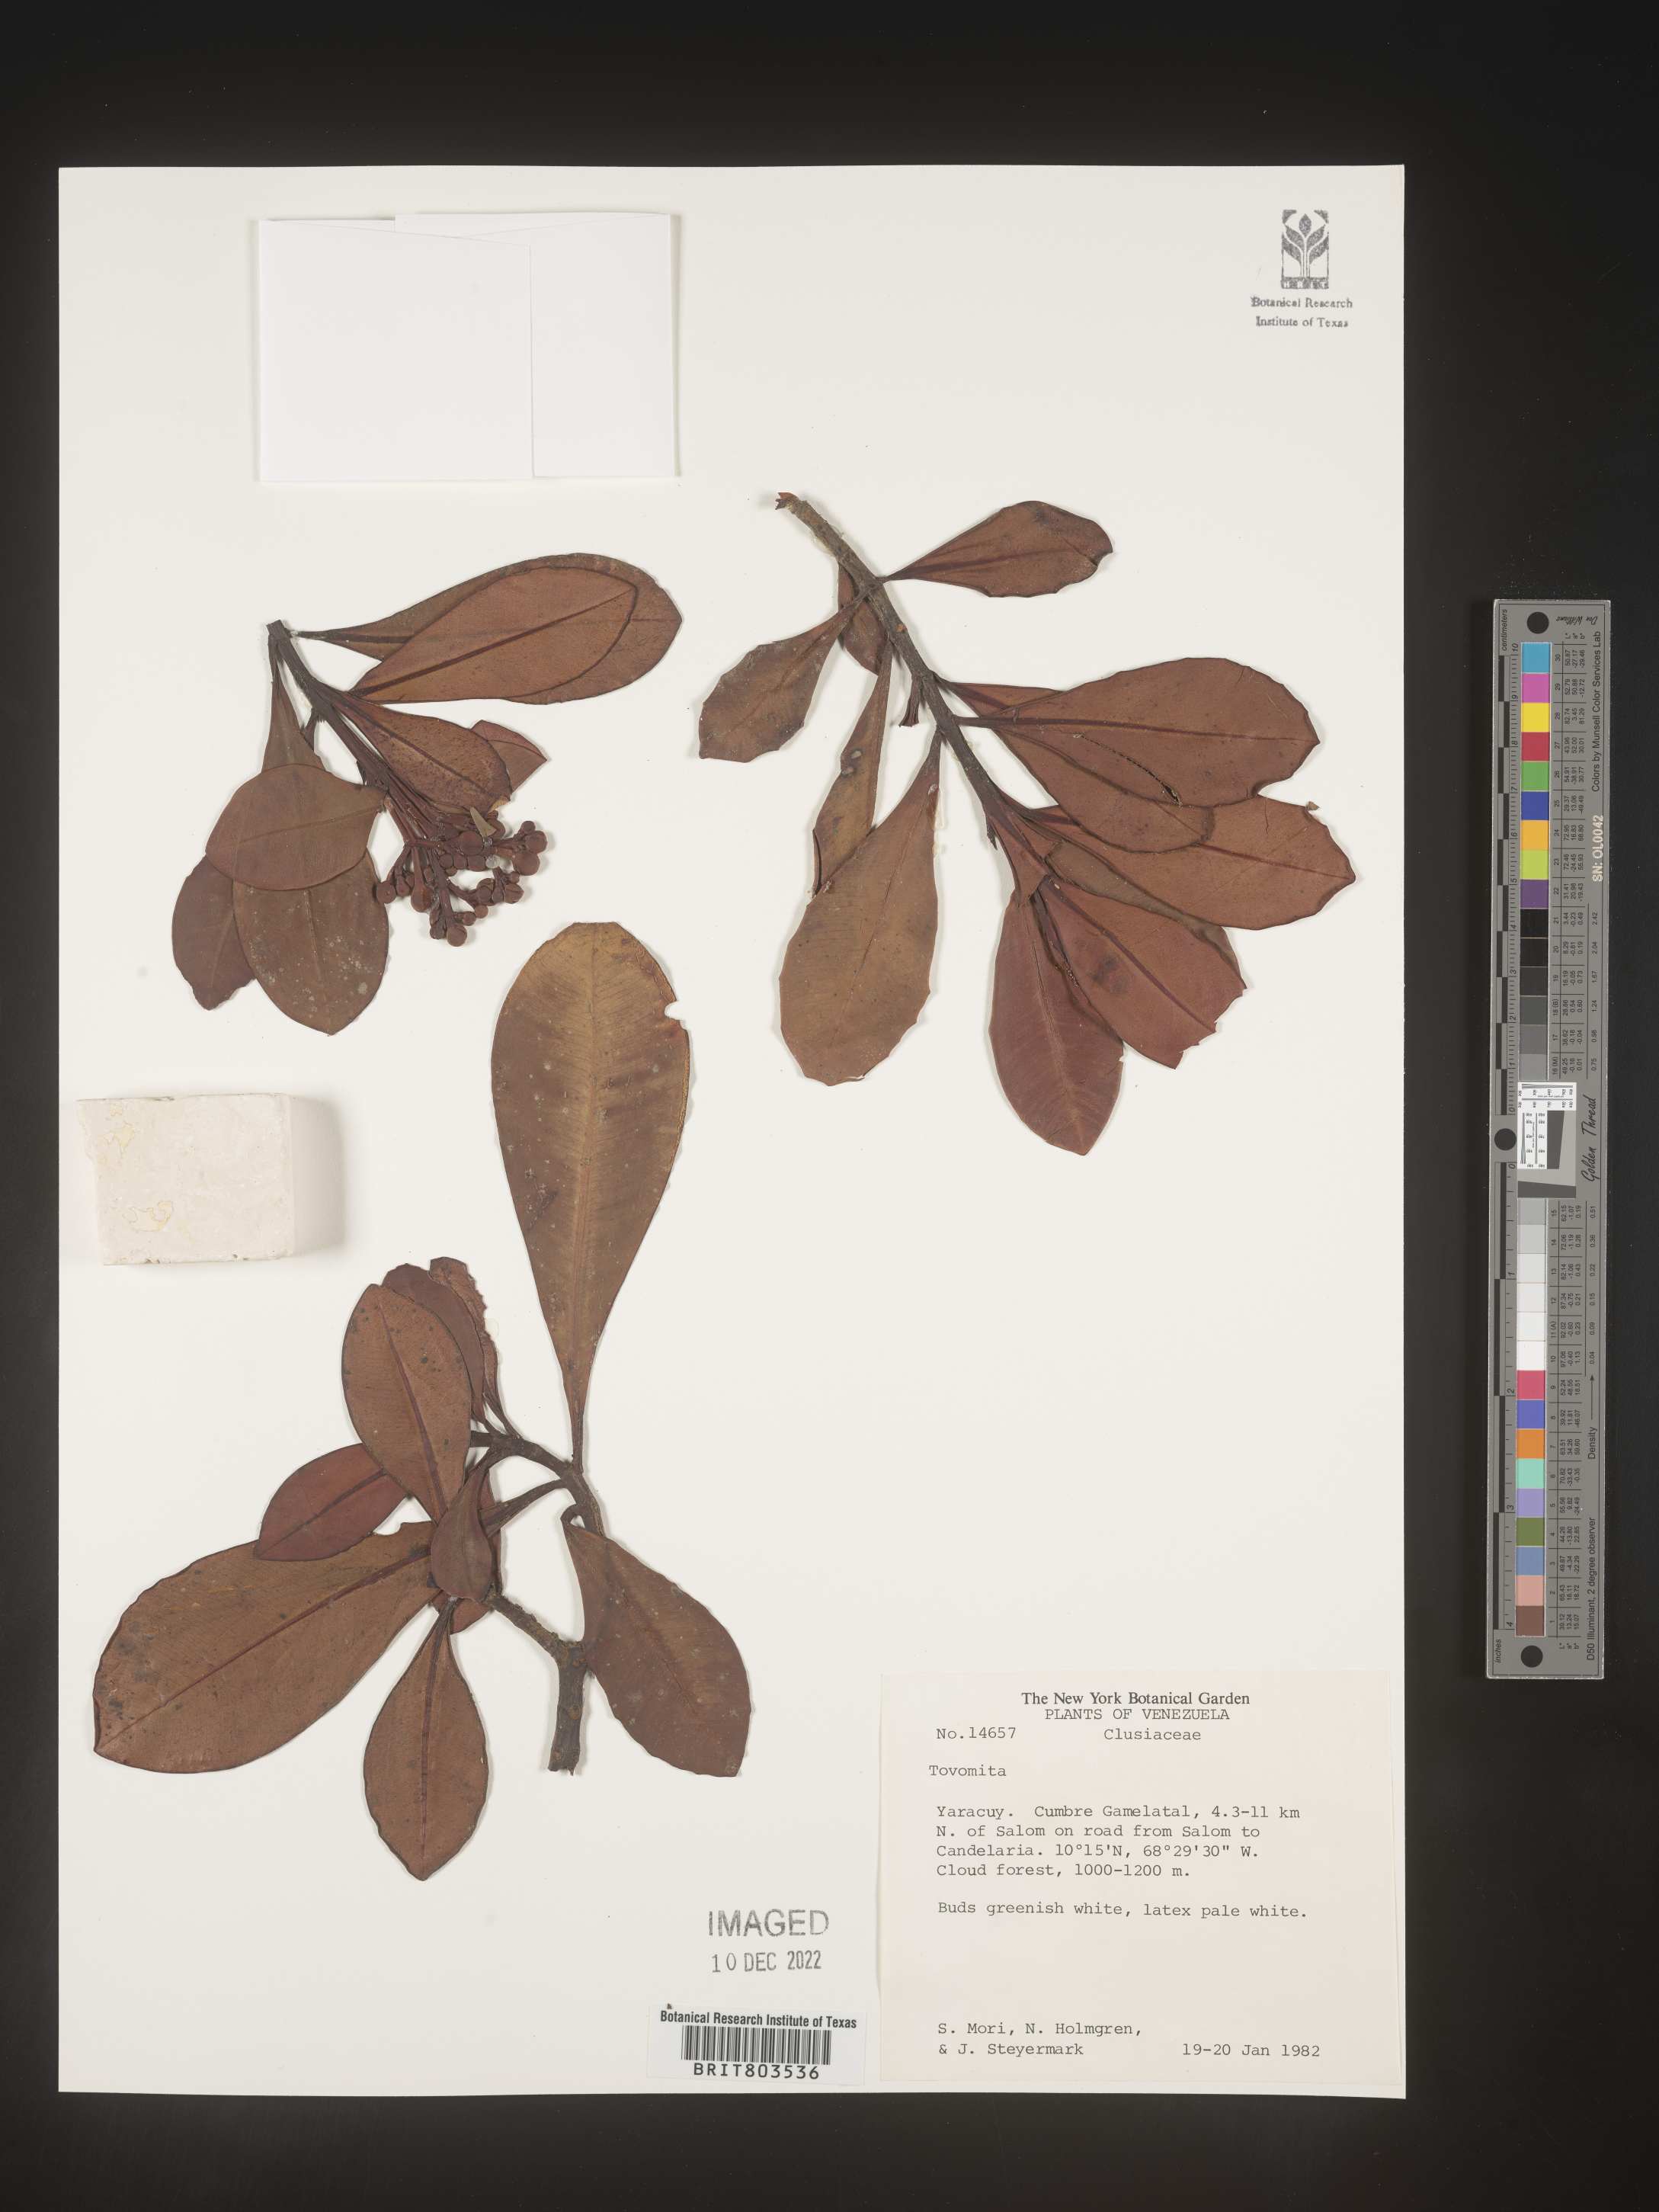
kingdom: Plantae
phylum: Tracheophyta
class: Magnoliopsida
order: Malpighiales
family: Clusiaceae
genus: Tovomita
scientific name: Tovomita
